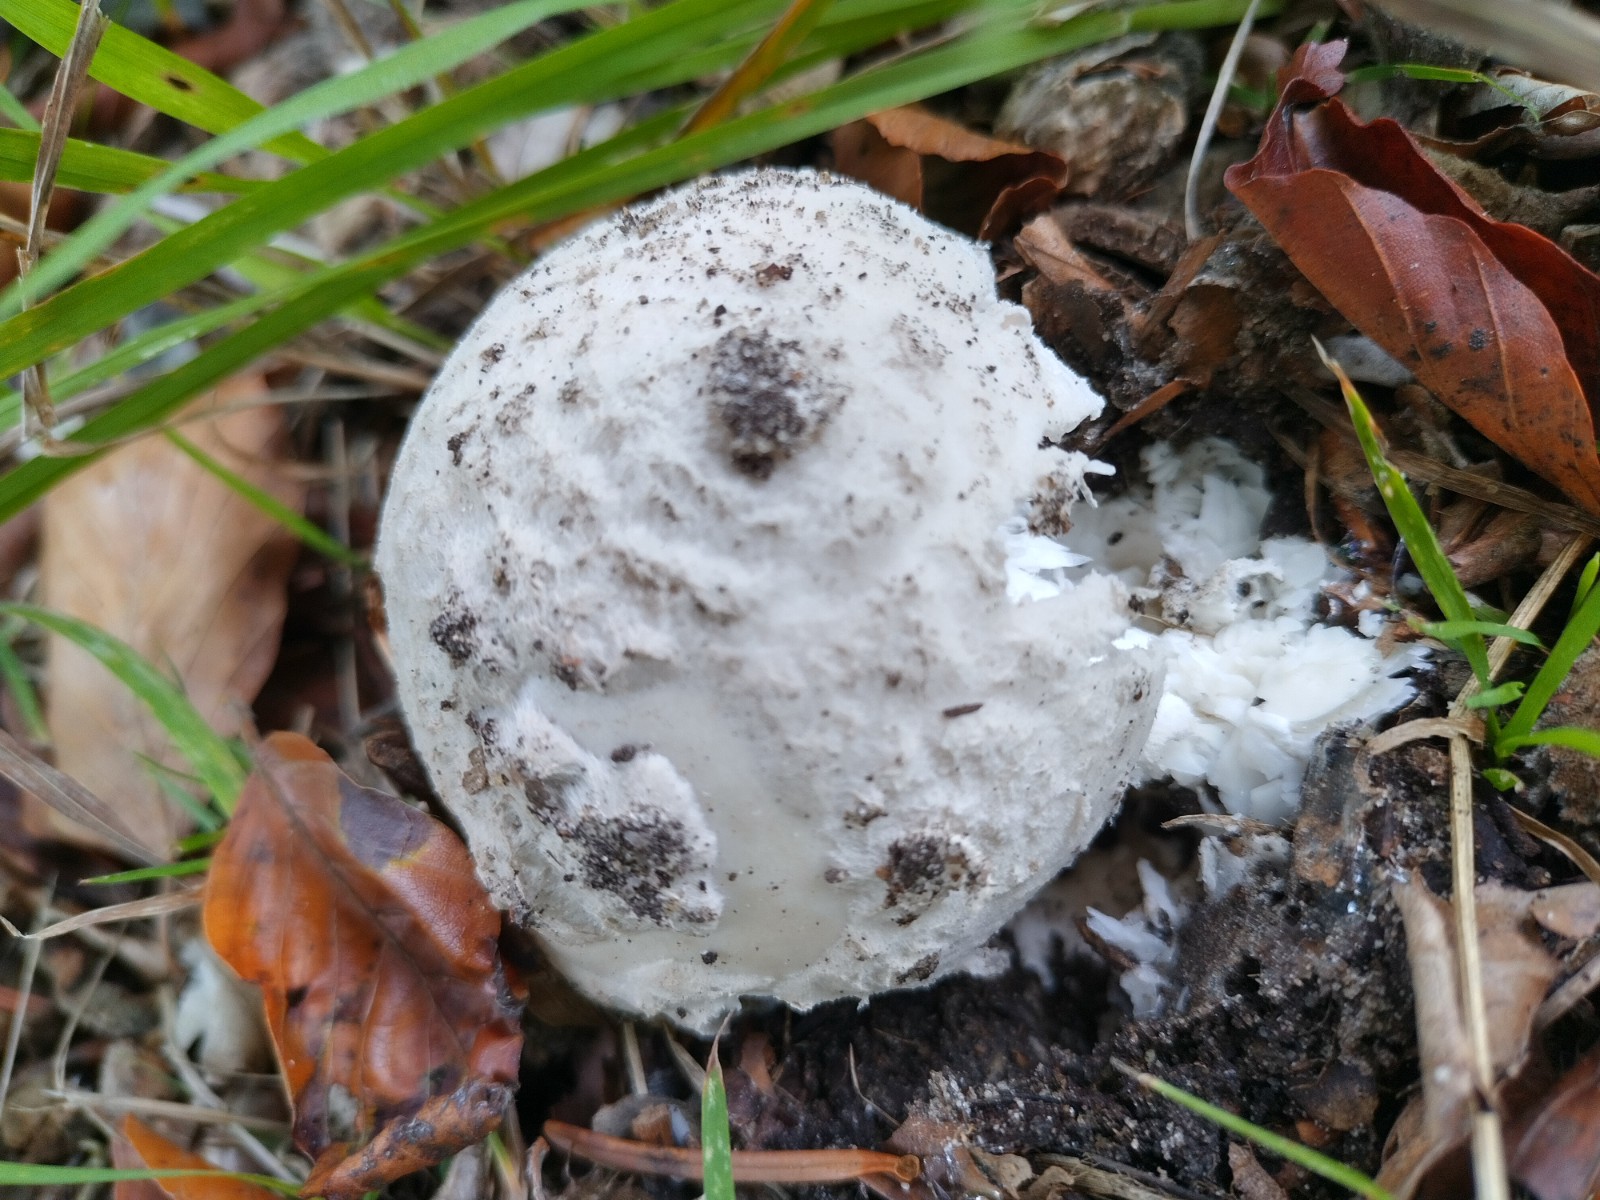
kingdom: Fungi
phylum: Basidiomycota
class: Agaricomycetes
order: Agaricales
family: Amanitaceae
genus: Amanita
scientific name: Amanita
